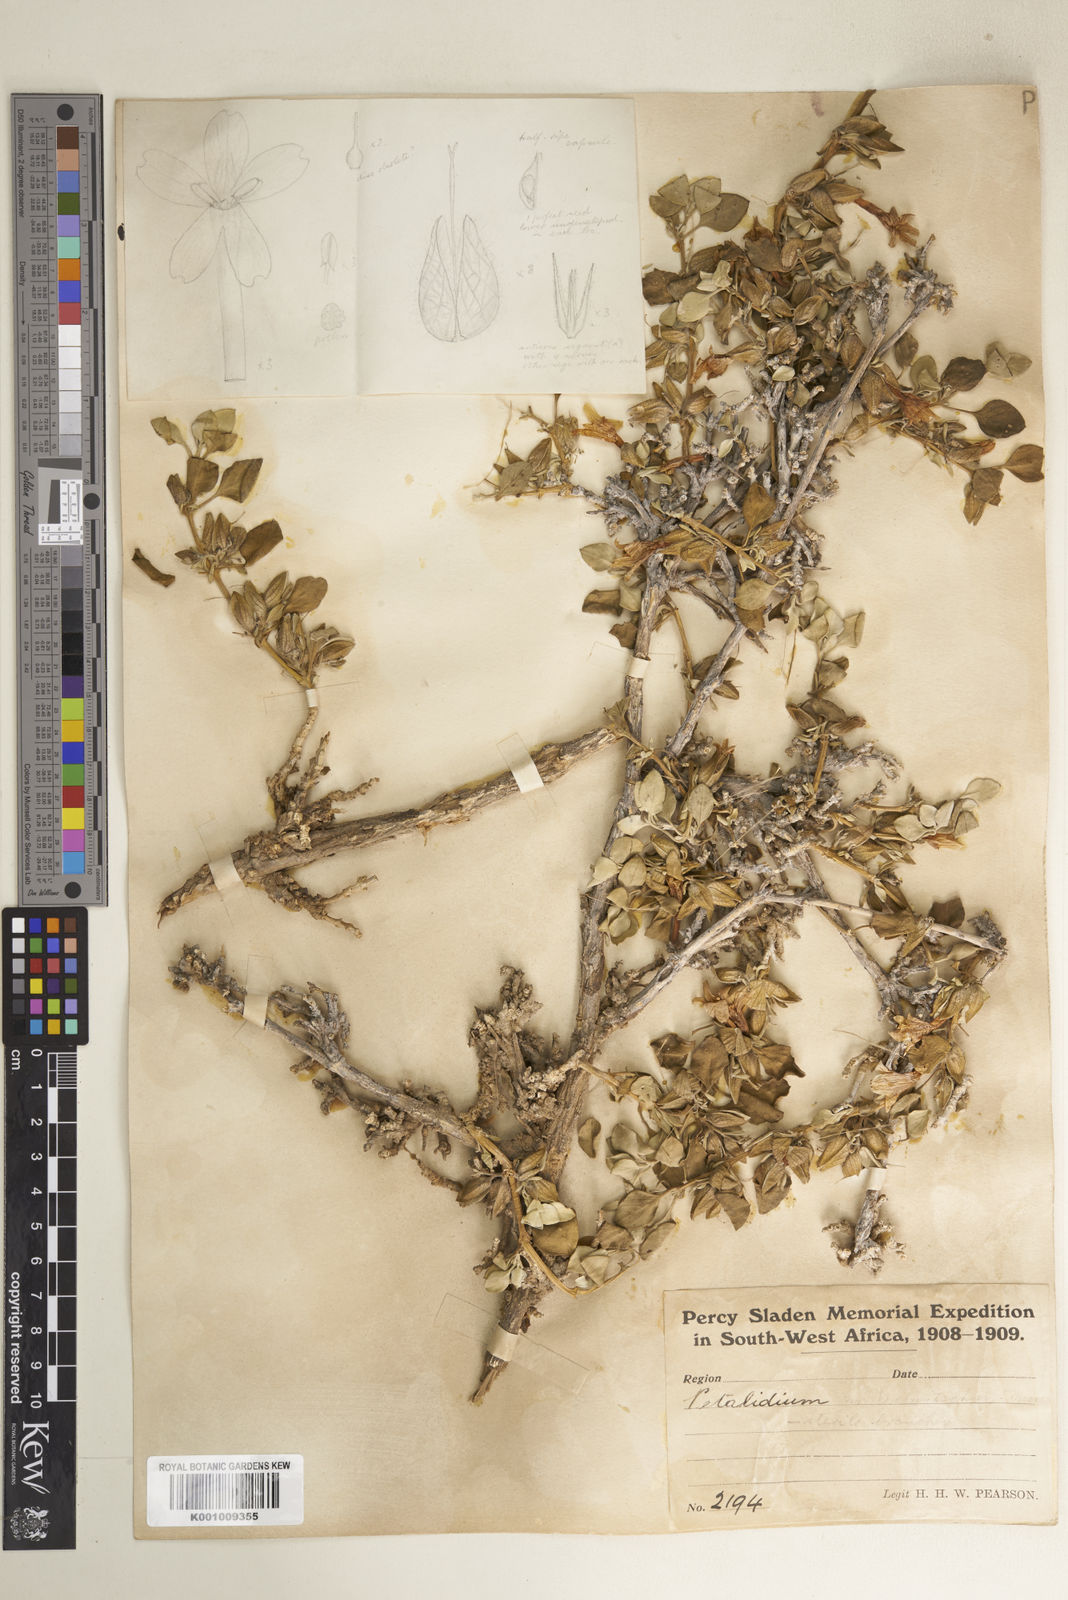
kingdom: Plantae
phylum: Tracheophyta
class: Magnoliopsida
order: Lamiales
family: Acanthaceae
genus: Petalidium
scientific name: Petalidium welwitschii
